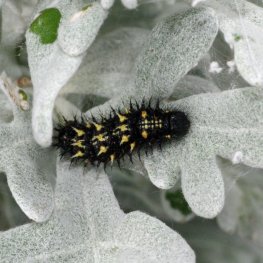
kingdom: Animalia
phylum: Arthropoda
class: Insecta
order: Lepidoptera
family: Nymphalidae
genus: Vanessa
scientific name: Vanessa cardui
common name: Painted Lady
